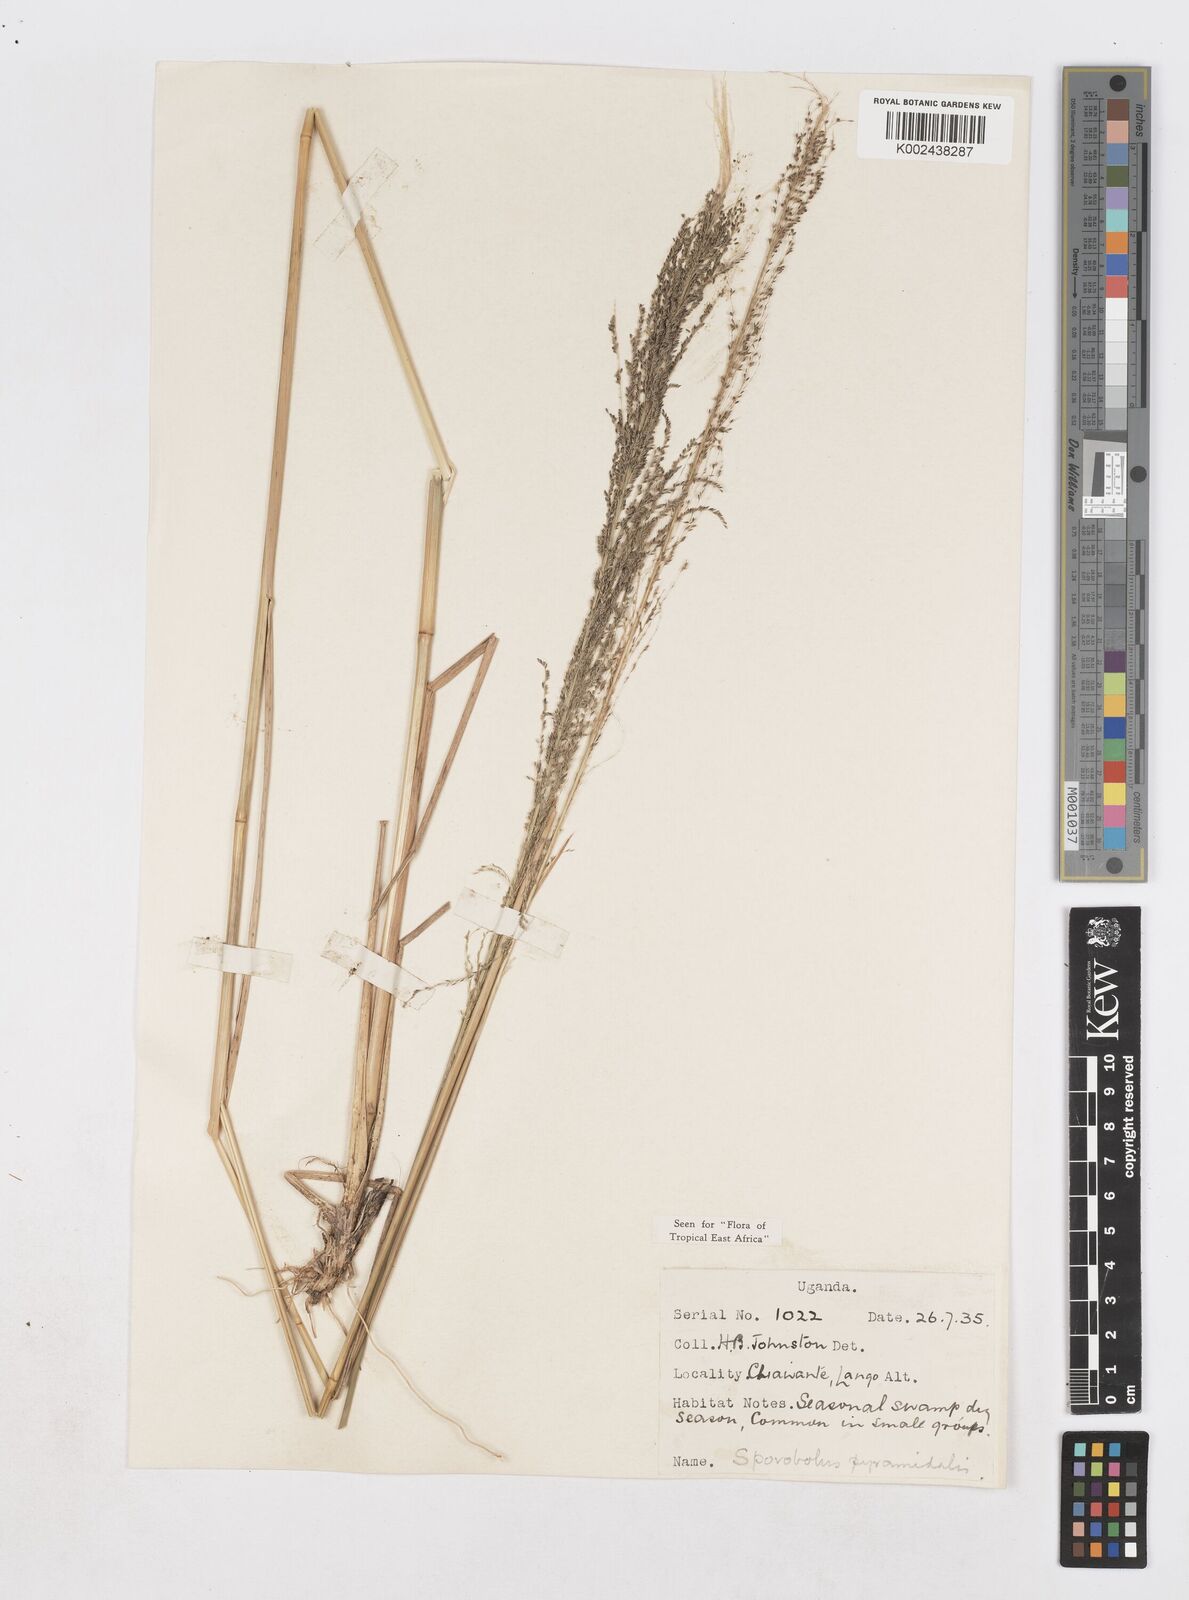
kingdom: Plantae
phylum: Tracheophyta
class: Liliopsida
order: Poales
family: Poaceae
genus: Sporobolus
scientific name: Sporobolus pyramidalis
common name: West indian dropseed
